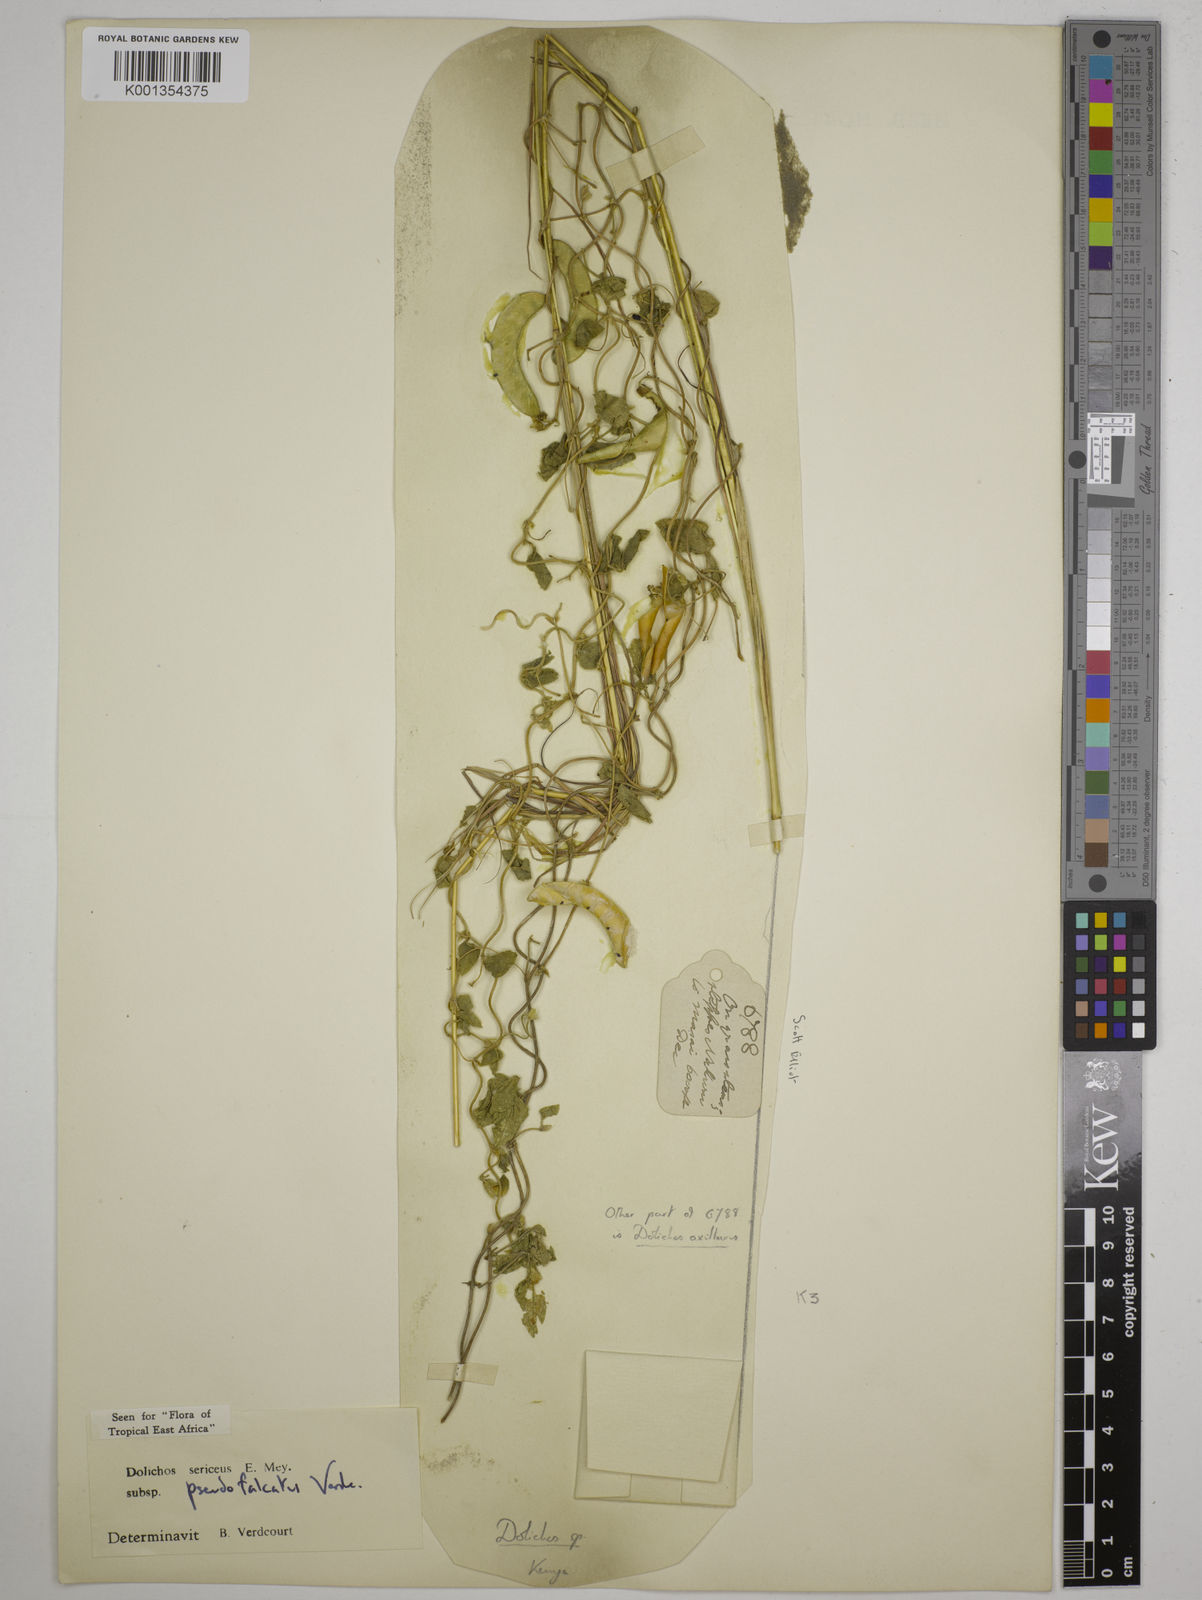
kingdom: Plantae
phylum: Tracheophyta
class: Magnoliopsida
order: Fabales
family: Fabaceae
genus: Dolichos
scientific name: Dolichos
